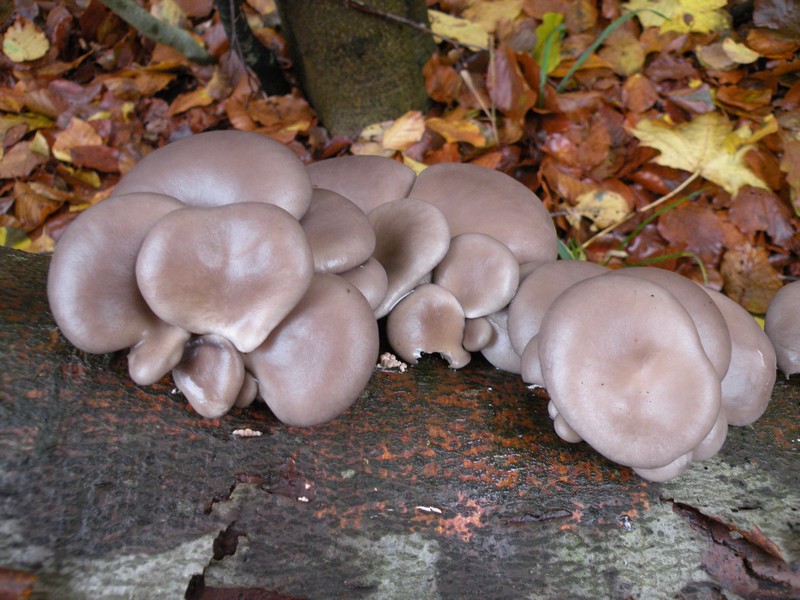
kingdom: Fungi
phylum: Basidiomycota
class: Agaricomycetes
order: Agaricales
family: Pleurotaceae
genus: Pleurotus
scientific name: Pleurotus ostreatus
